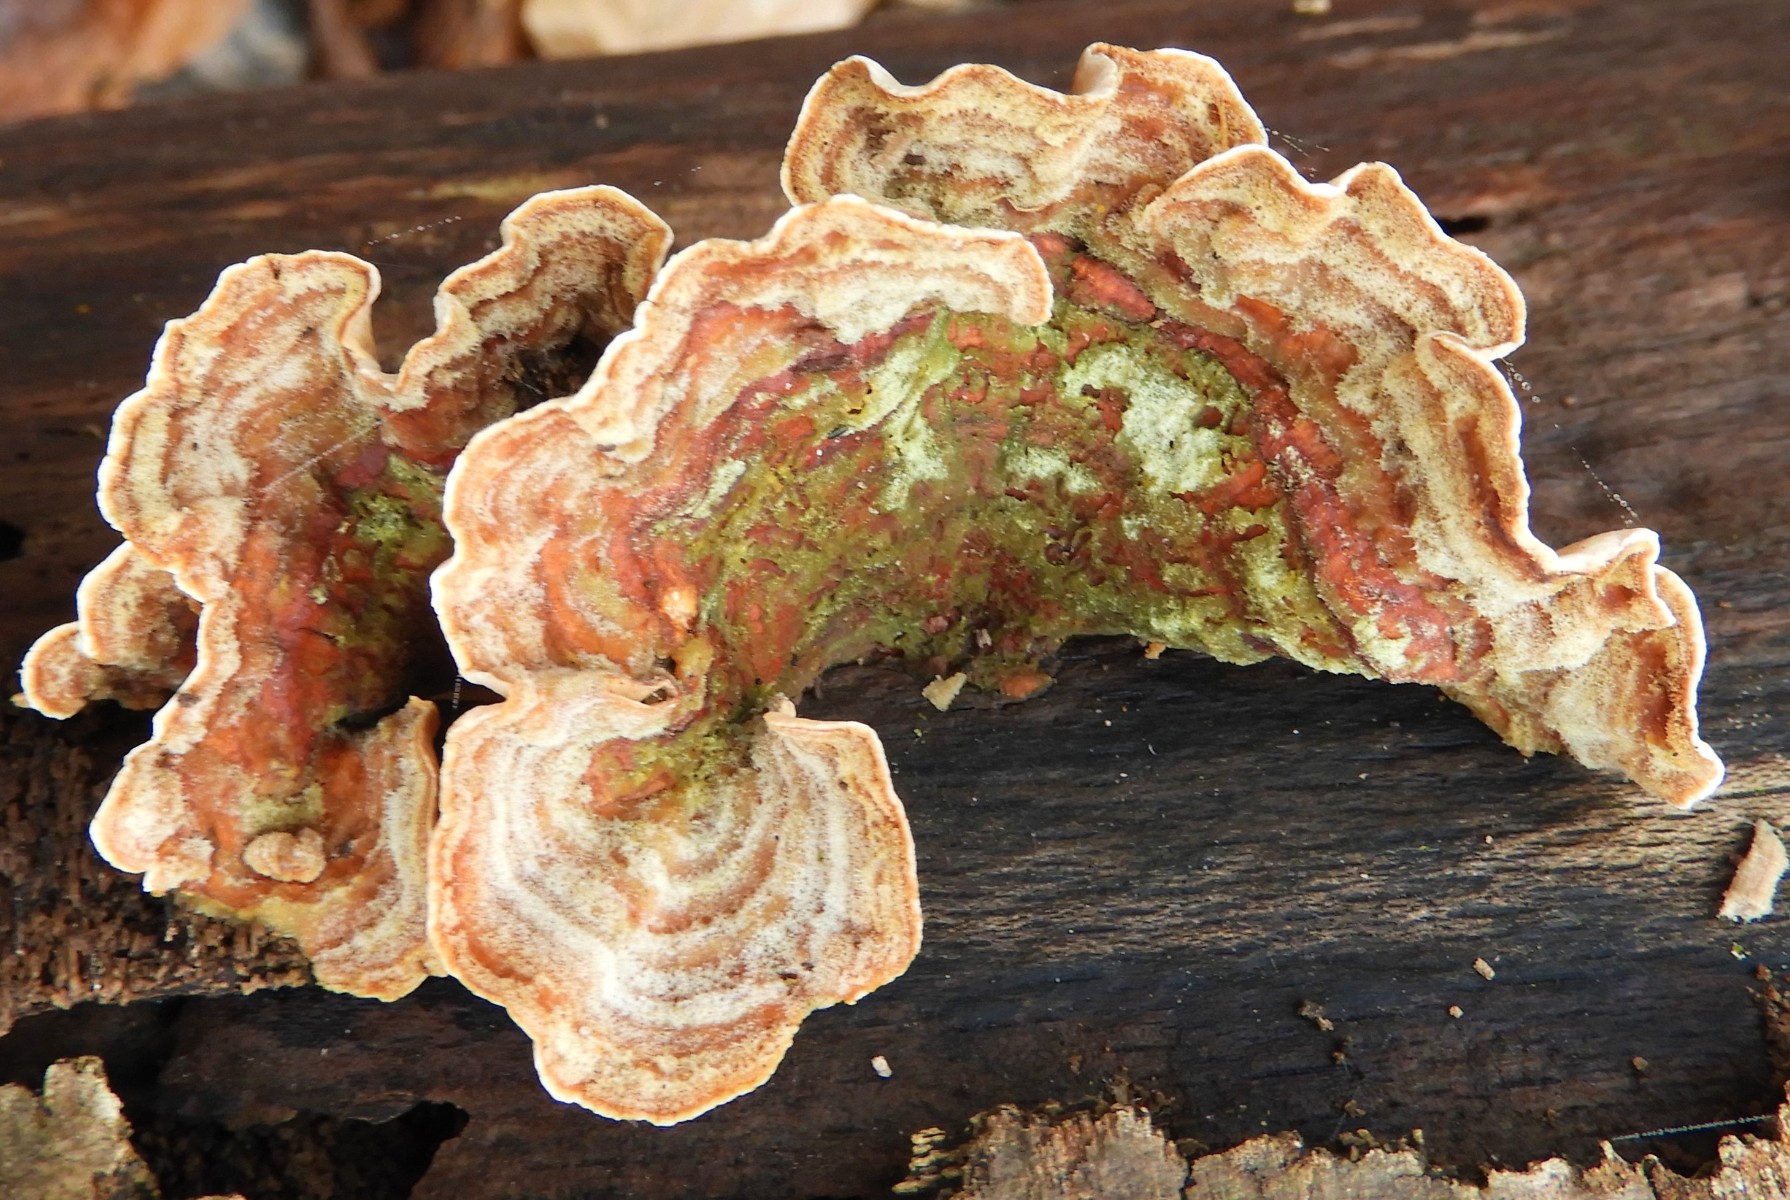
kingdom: Fungi
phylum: Basidiomycota
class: Agaricomycetes
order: Russulales
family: Stereaceae
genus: Stereum
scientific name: Stereum subtomentosum
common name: smuk lædersvamp
